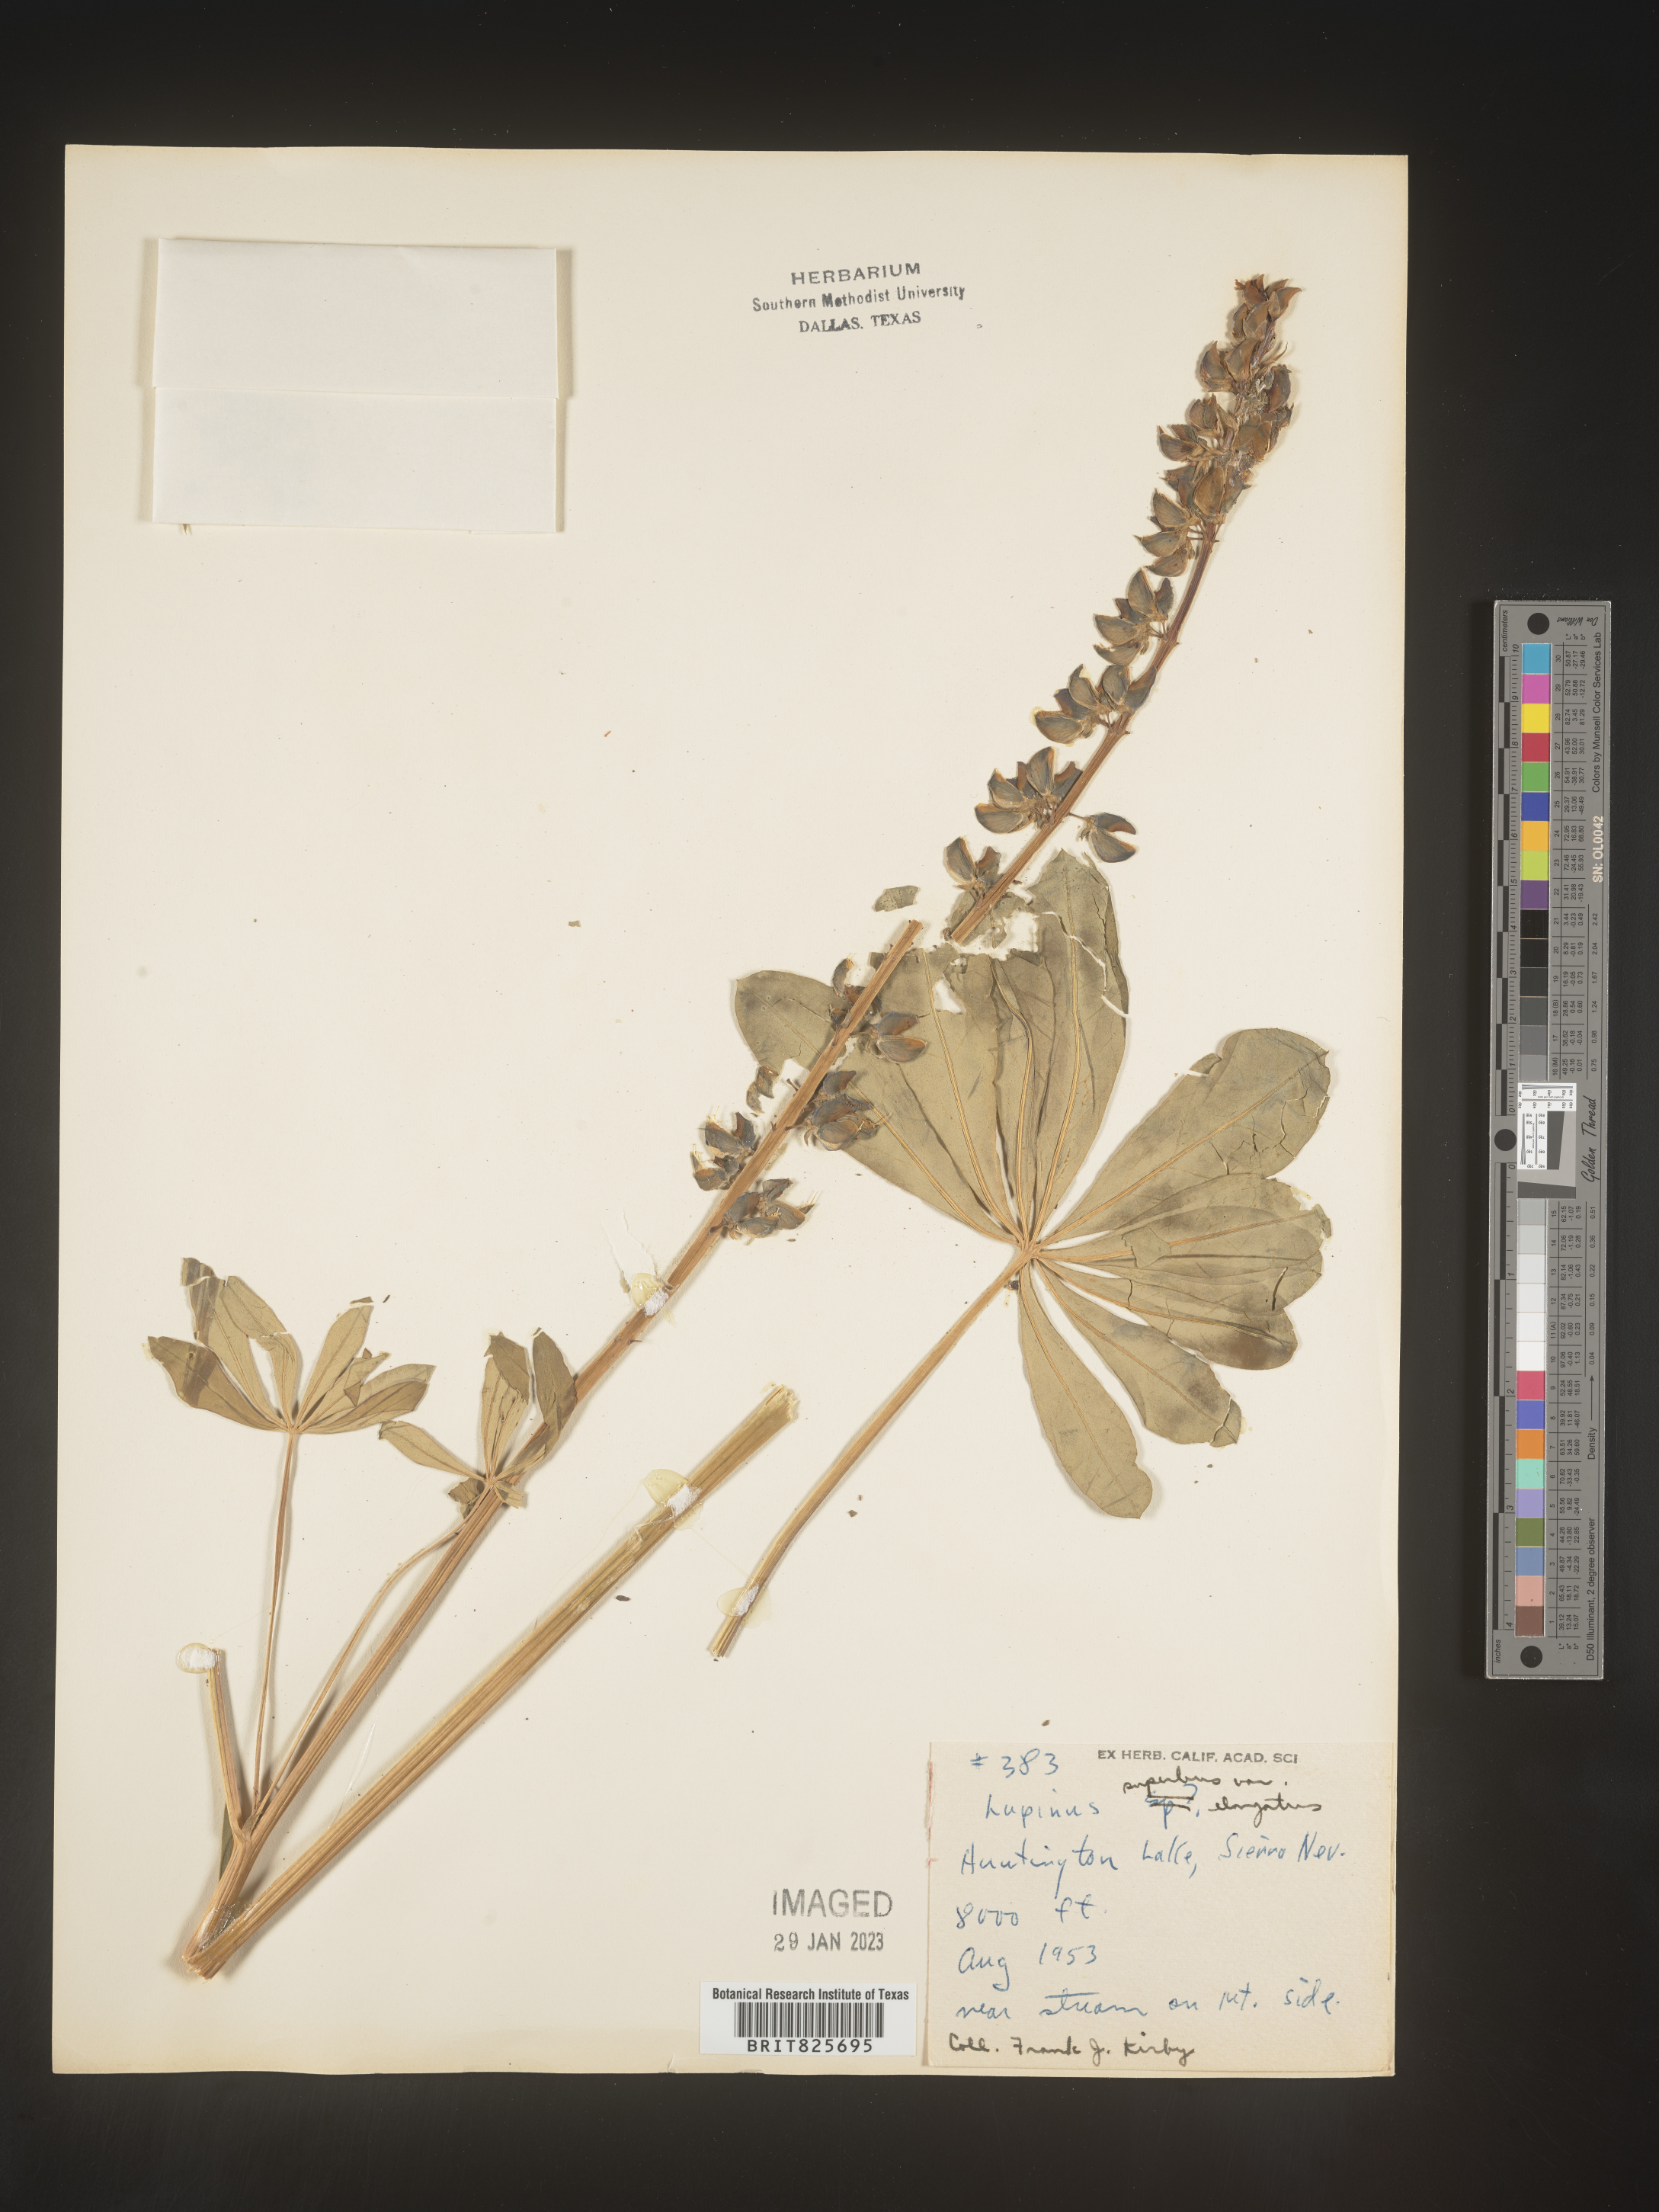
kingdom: Plantae
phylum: Tracheophyta
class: Magnoliopsida
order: Fabales
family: Fabaceae
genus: Lupinus
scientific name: Lupinus
